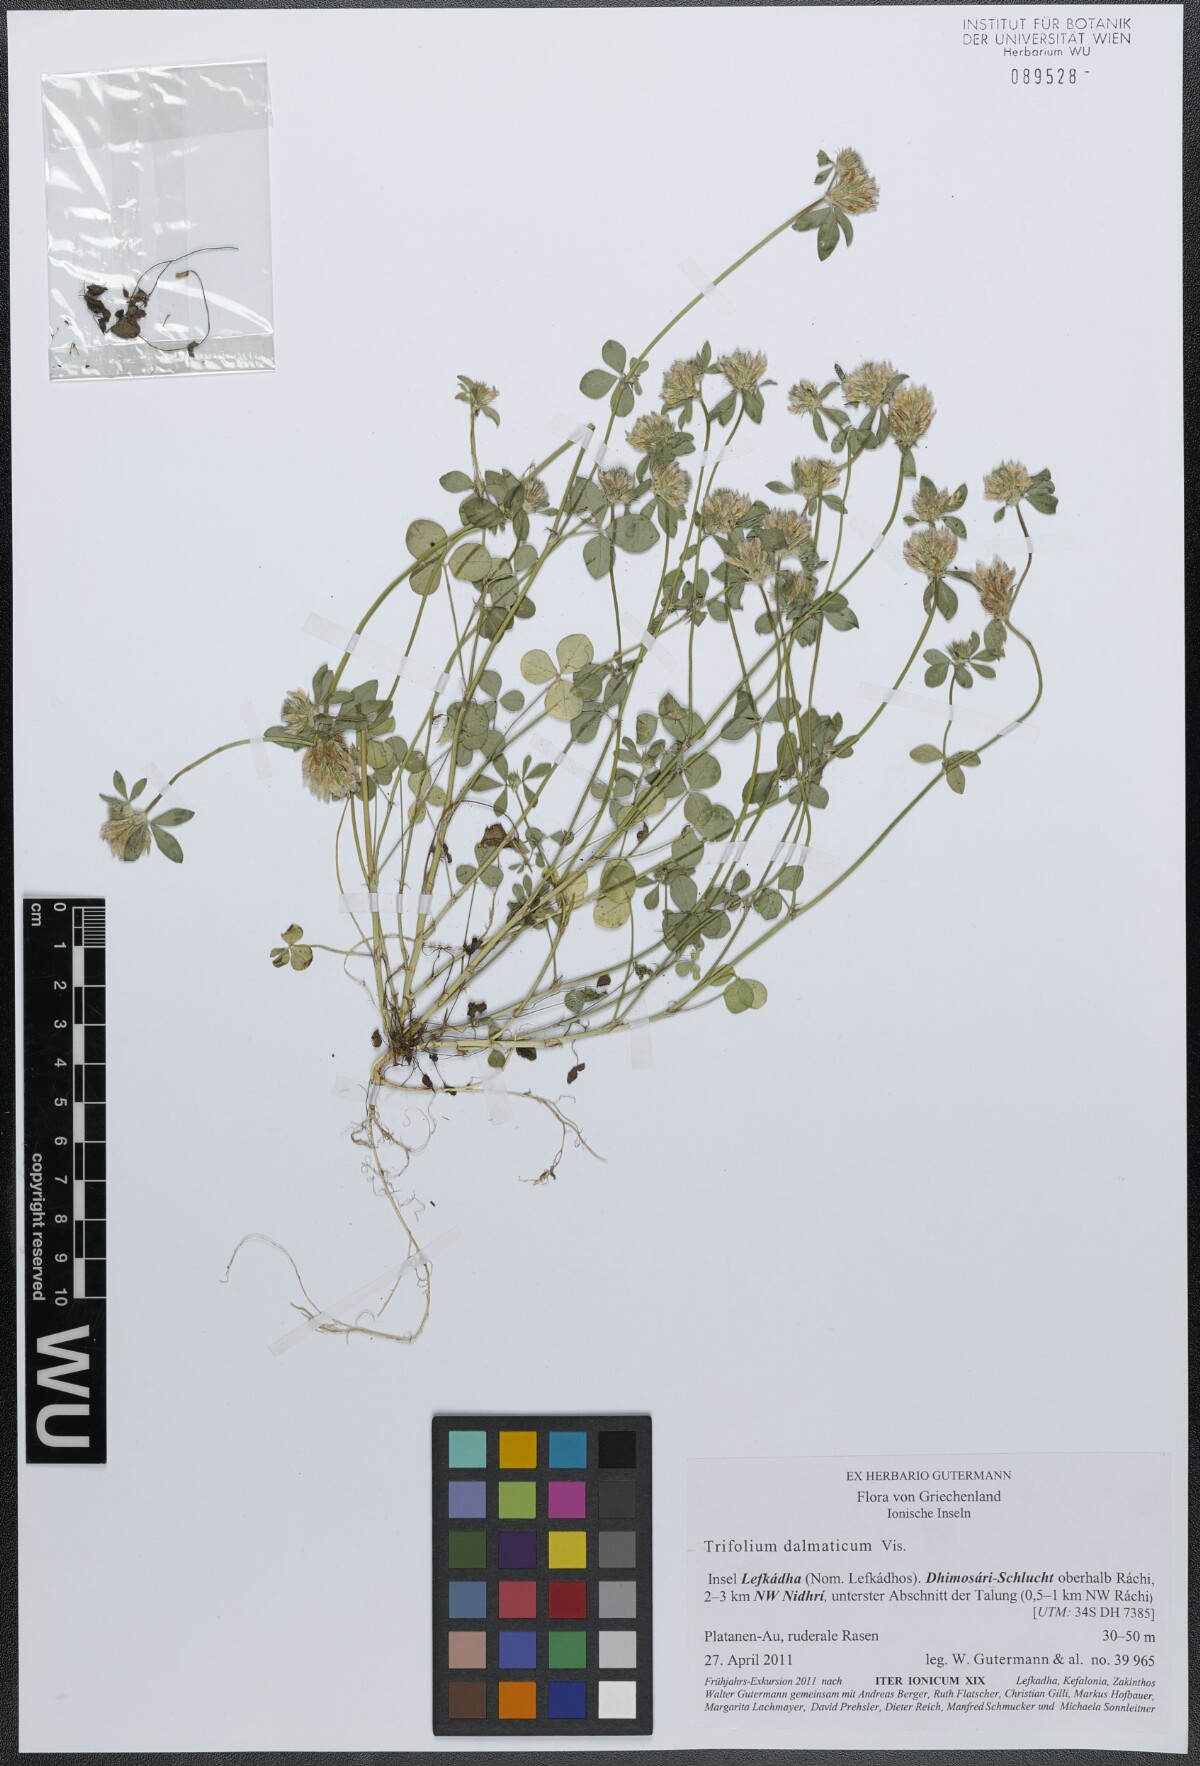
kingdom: Plantae
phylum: Tracheophyta
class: Magnoliopsida
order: Fabales
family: Fabaceae
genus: Trifolium
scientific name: Trifolium dalmaticum
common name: Dalmatian clover
